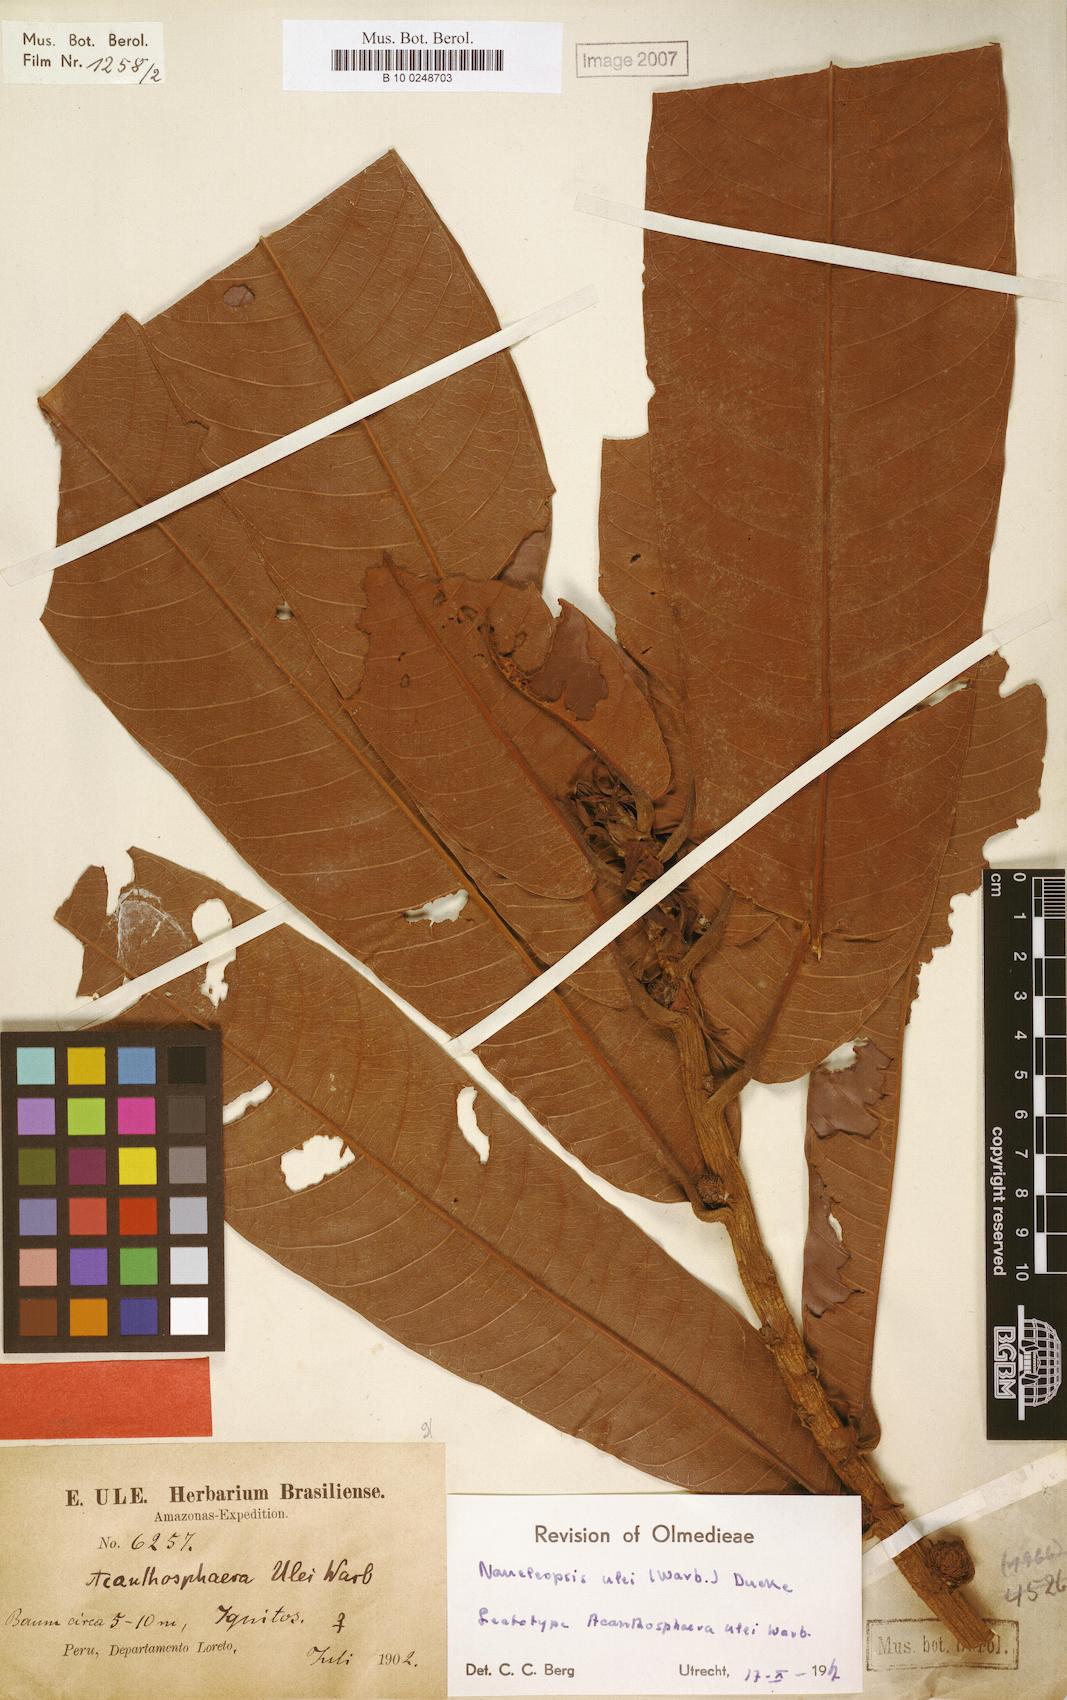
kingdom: Plantae
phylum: Tracheophyta
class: Magnoliopsida
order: Rosales
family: Moraceae
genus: Naucleopsis
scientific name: Naucleopsis ulei
